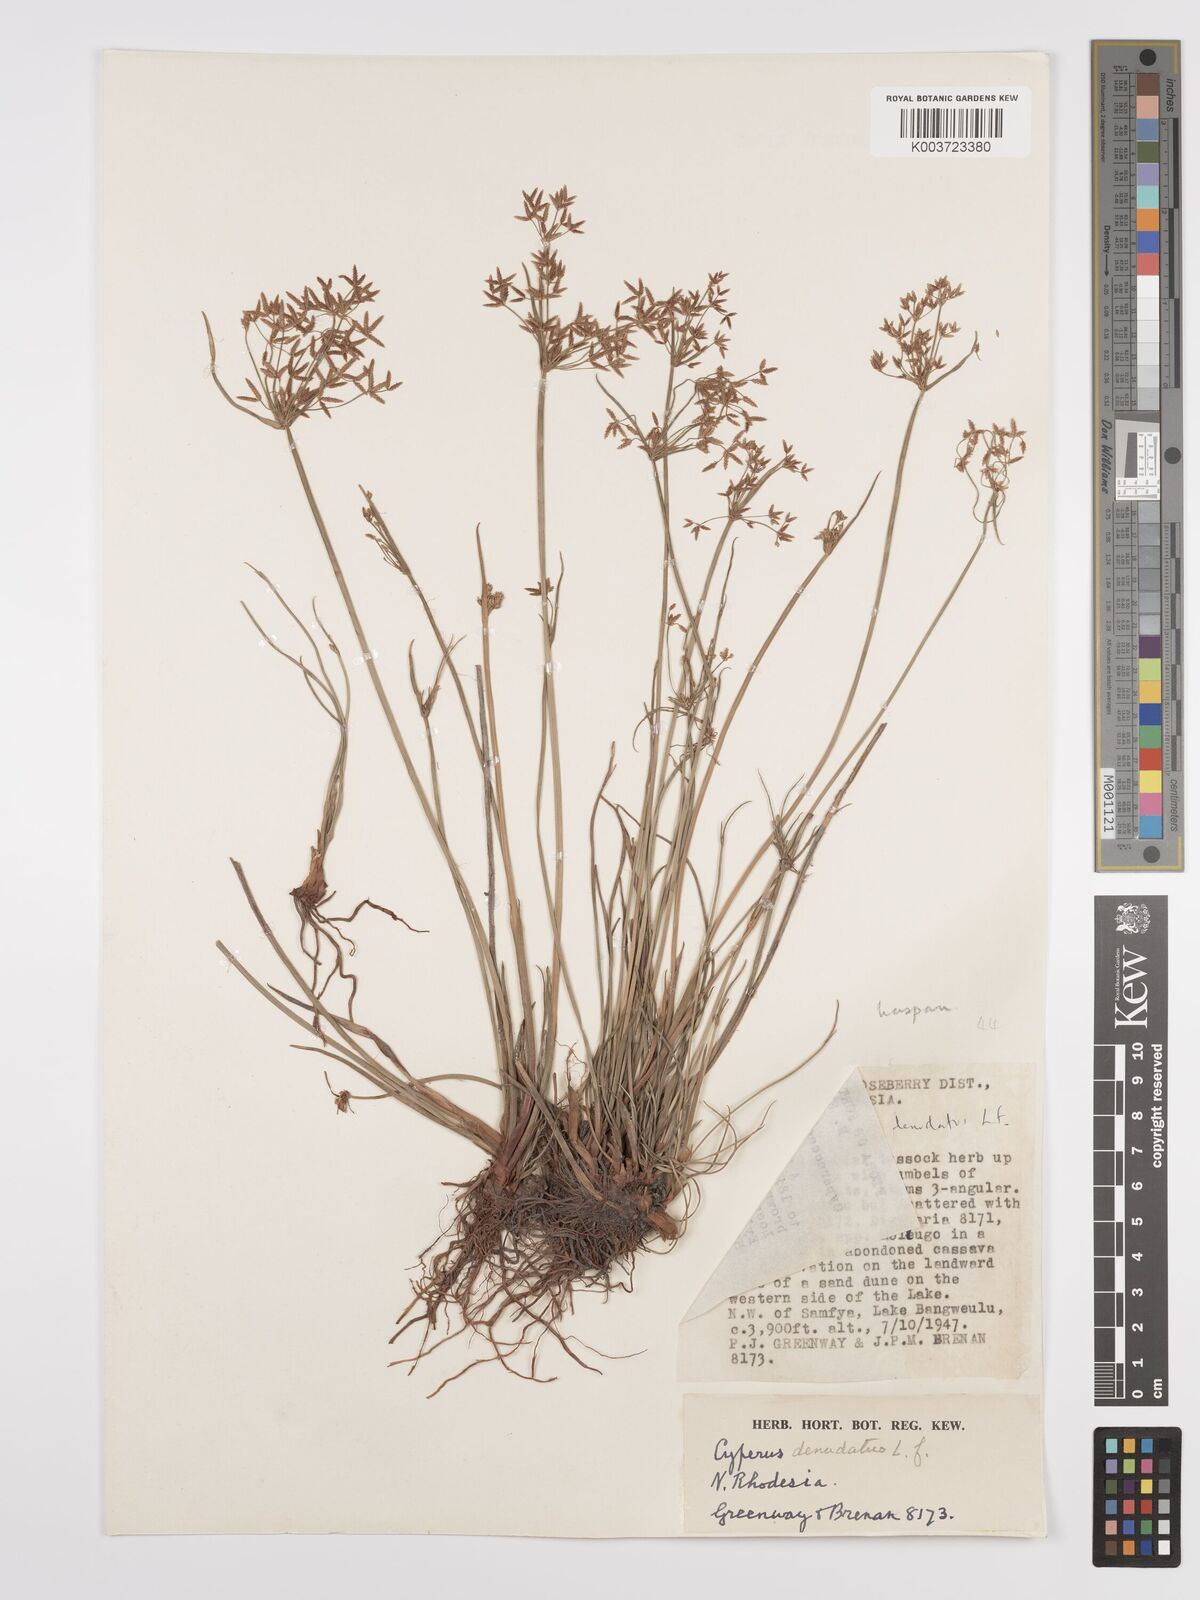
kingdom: Plantae
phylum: Tracheophyta
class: Liliopsida
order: Poales
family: Cyperaceae
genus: Cyperus
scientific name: Cyperus denudatus
